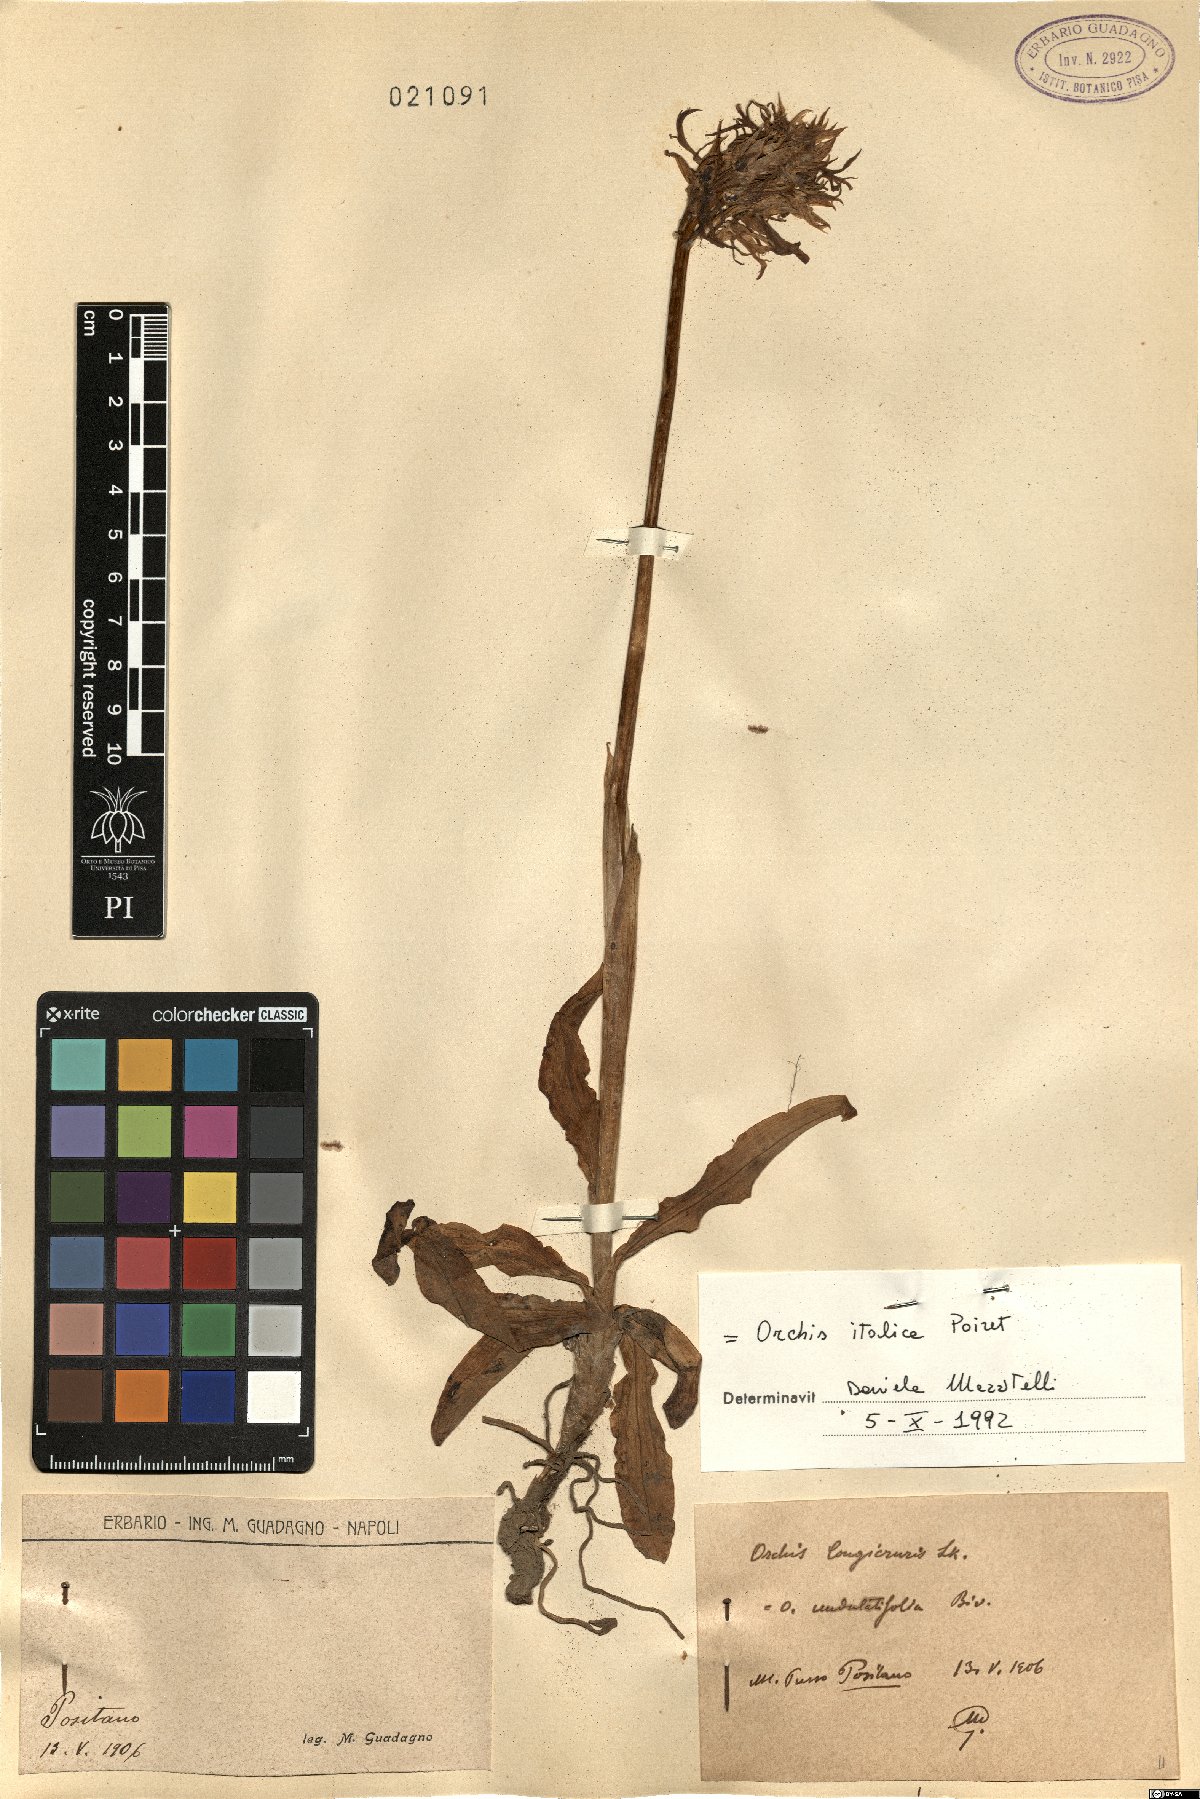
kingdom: Plantae
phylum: Tracheophyta
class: Liliopsida
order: Asparagales
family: Orchidaceae
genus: Orchis
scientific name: Orchis italica
